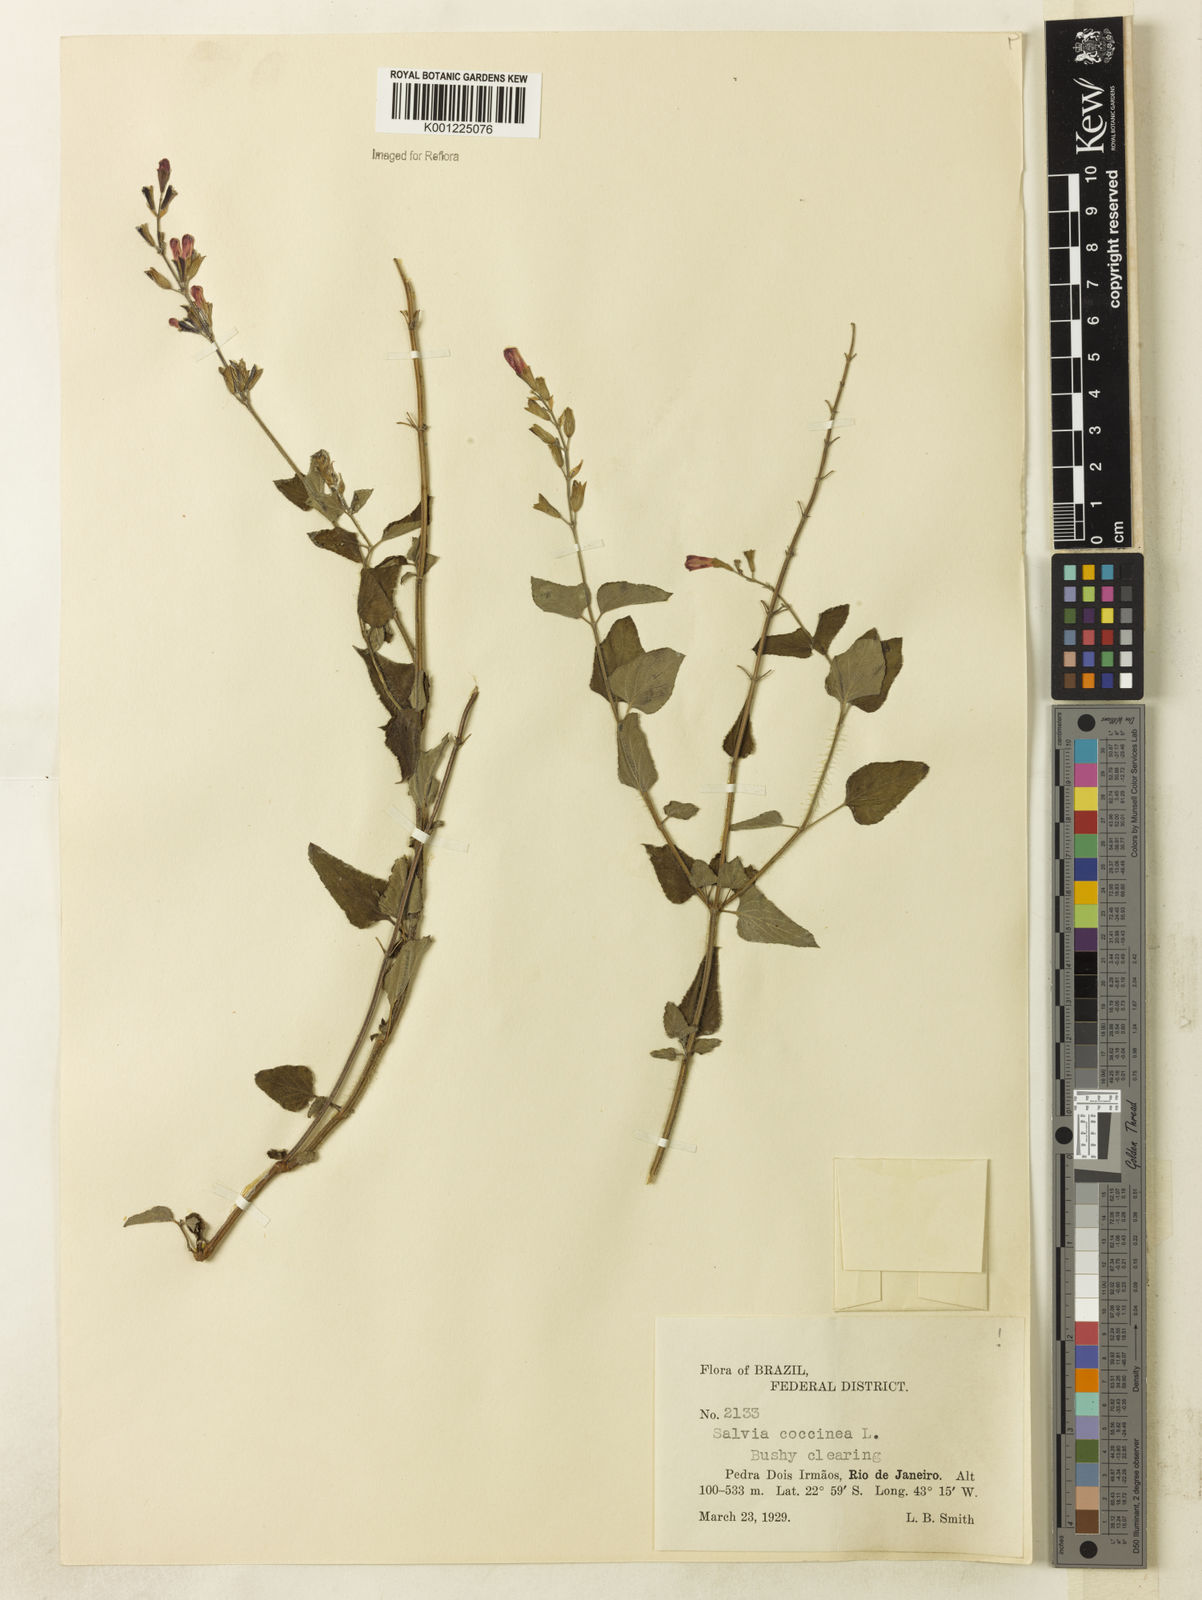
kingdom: Plantae
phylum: Tracheophyta
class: Magnoliopsida
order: Lamiales
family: Lamiaceae
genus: Salvia
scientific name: Salvia coccinea
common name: Blood sage
